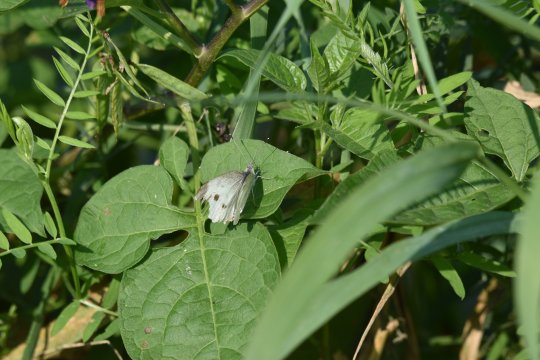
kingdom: Animalia
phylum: Arthropoda
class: Insecta
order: Lepidoptera
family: Pieridae
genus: Pieris
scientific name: Pieris rapae
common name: Cabbage White
